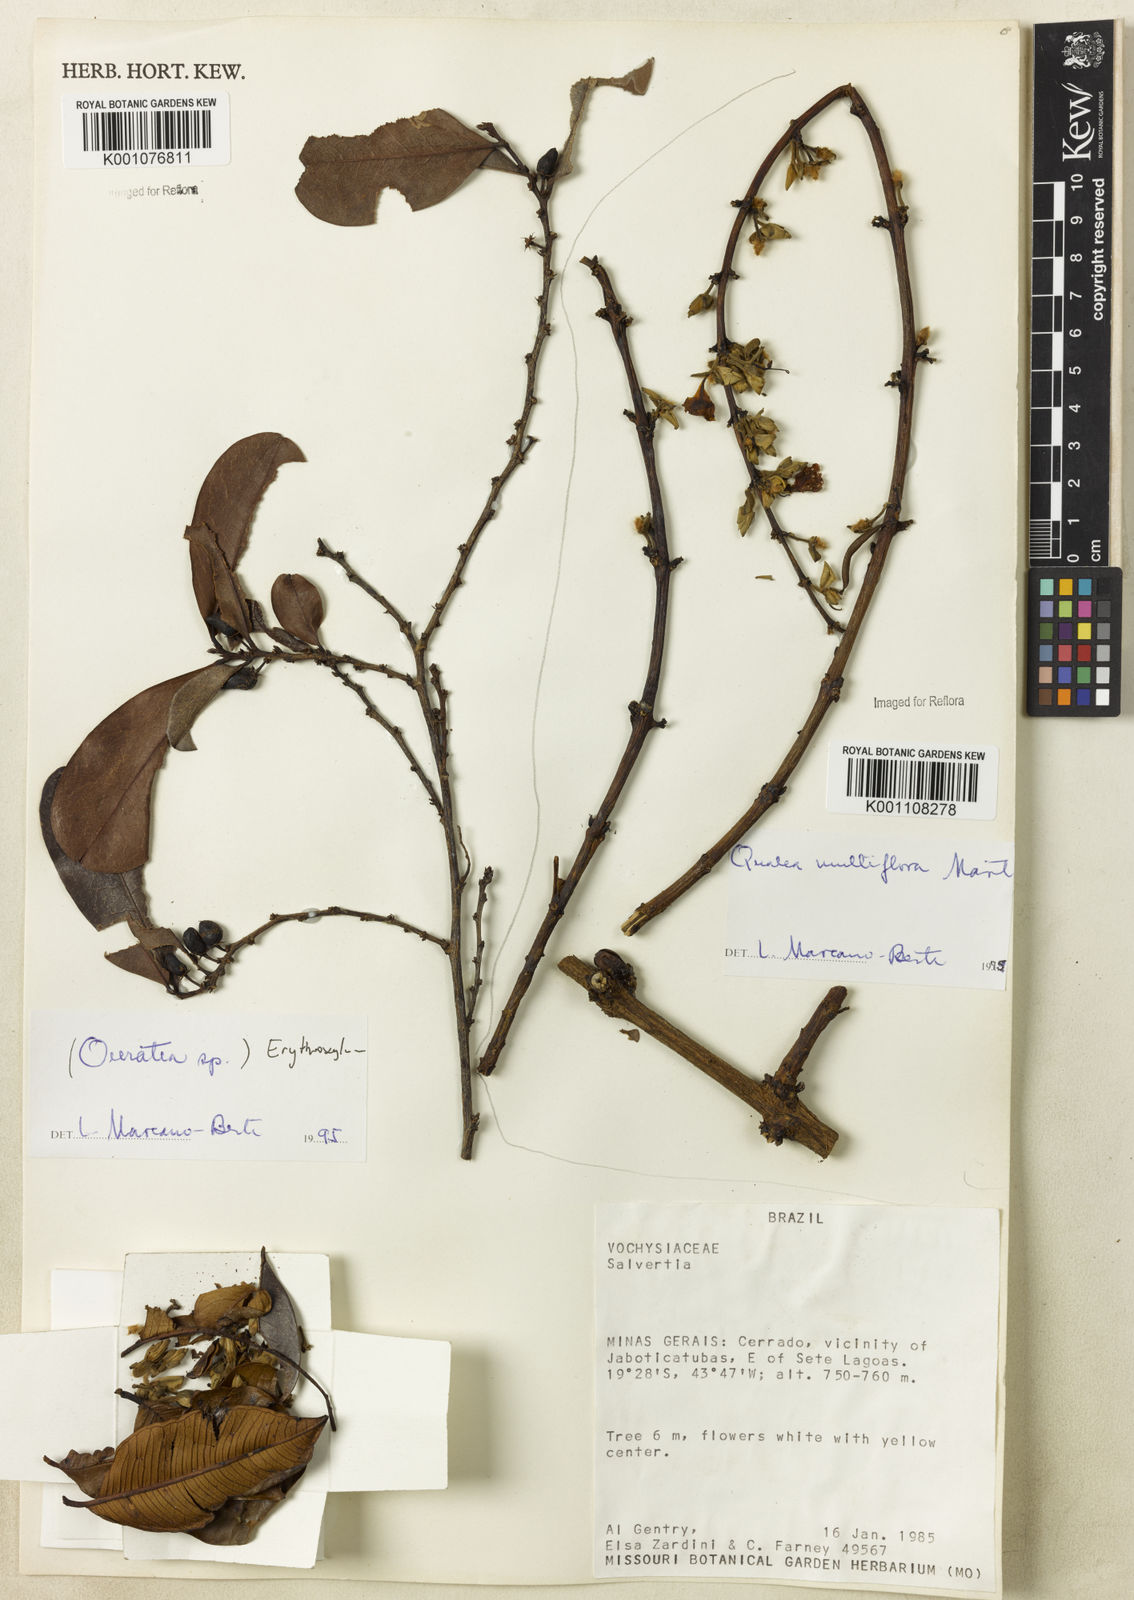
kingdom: Plantae
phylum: Tracheophyta
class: Magnoliopsida
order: Myrtales
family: Vochysiaceae
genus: Qualea
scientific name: Qualea multiflora
